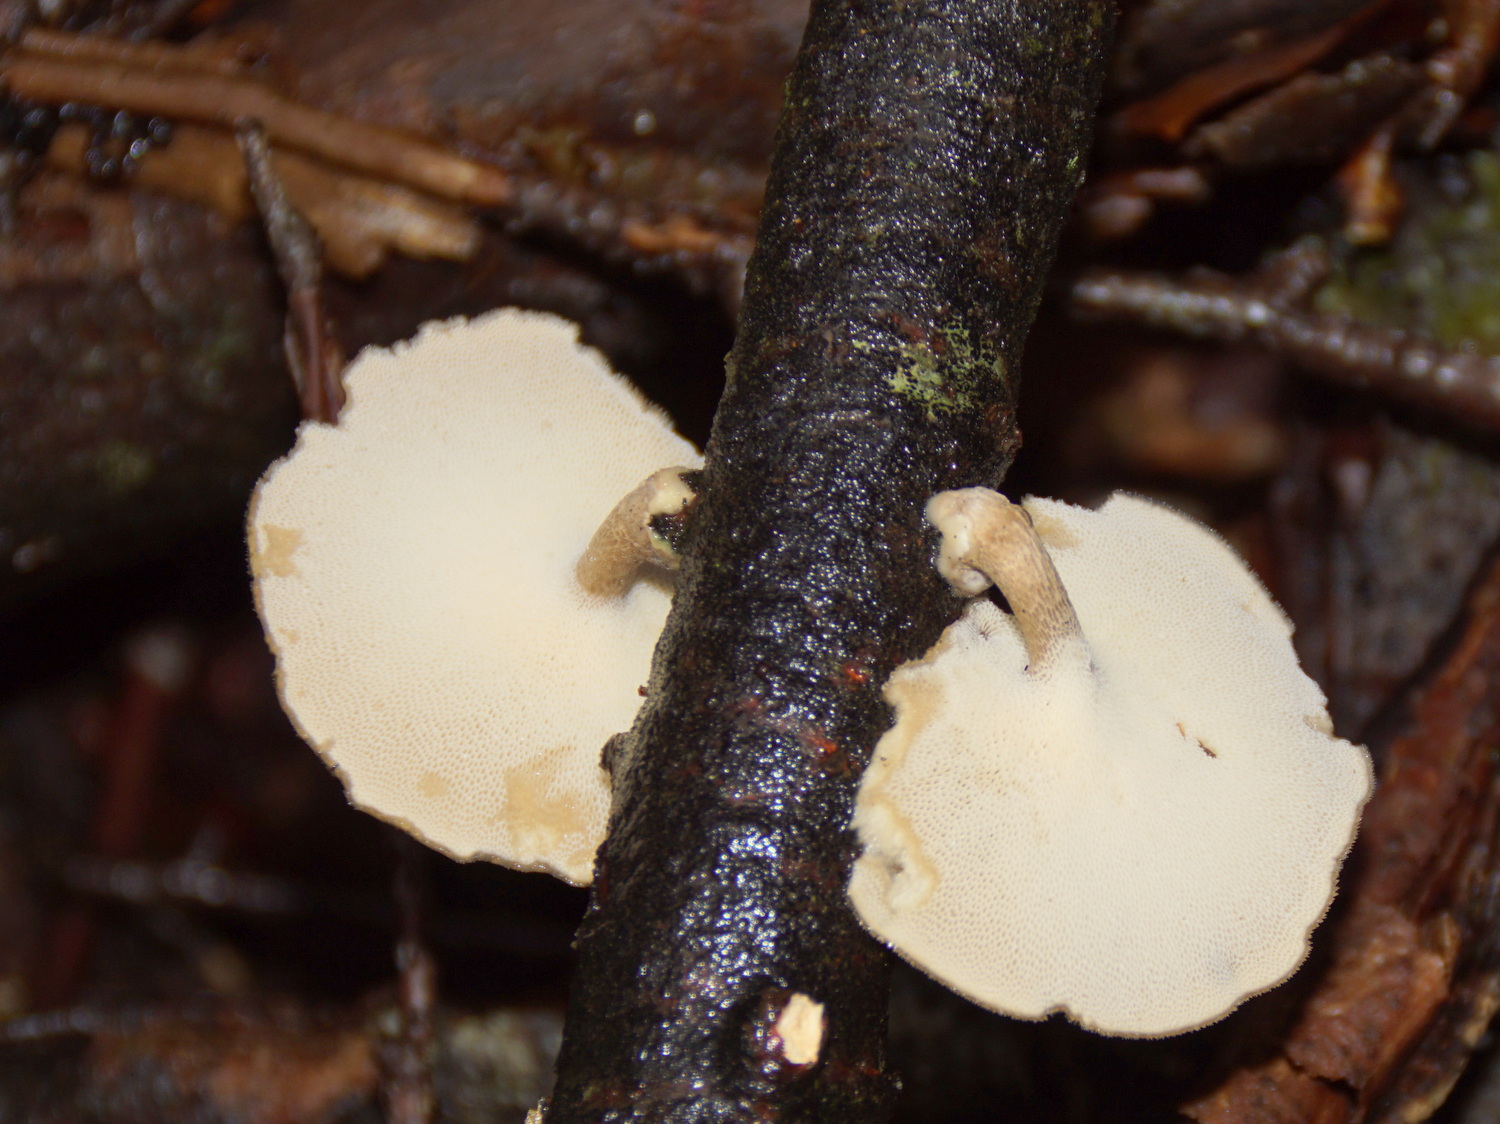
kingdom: Fungi
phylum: Basidiomycota
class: Agaricomycetes
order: Polyporales
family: Polyporaceae
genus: Lentinus
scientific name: Lentinus brumalis
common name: vinter-stilkporesvamp
